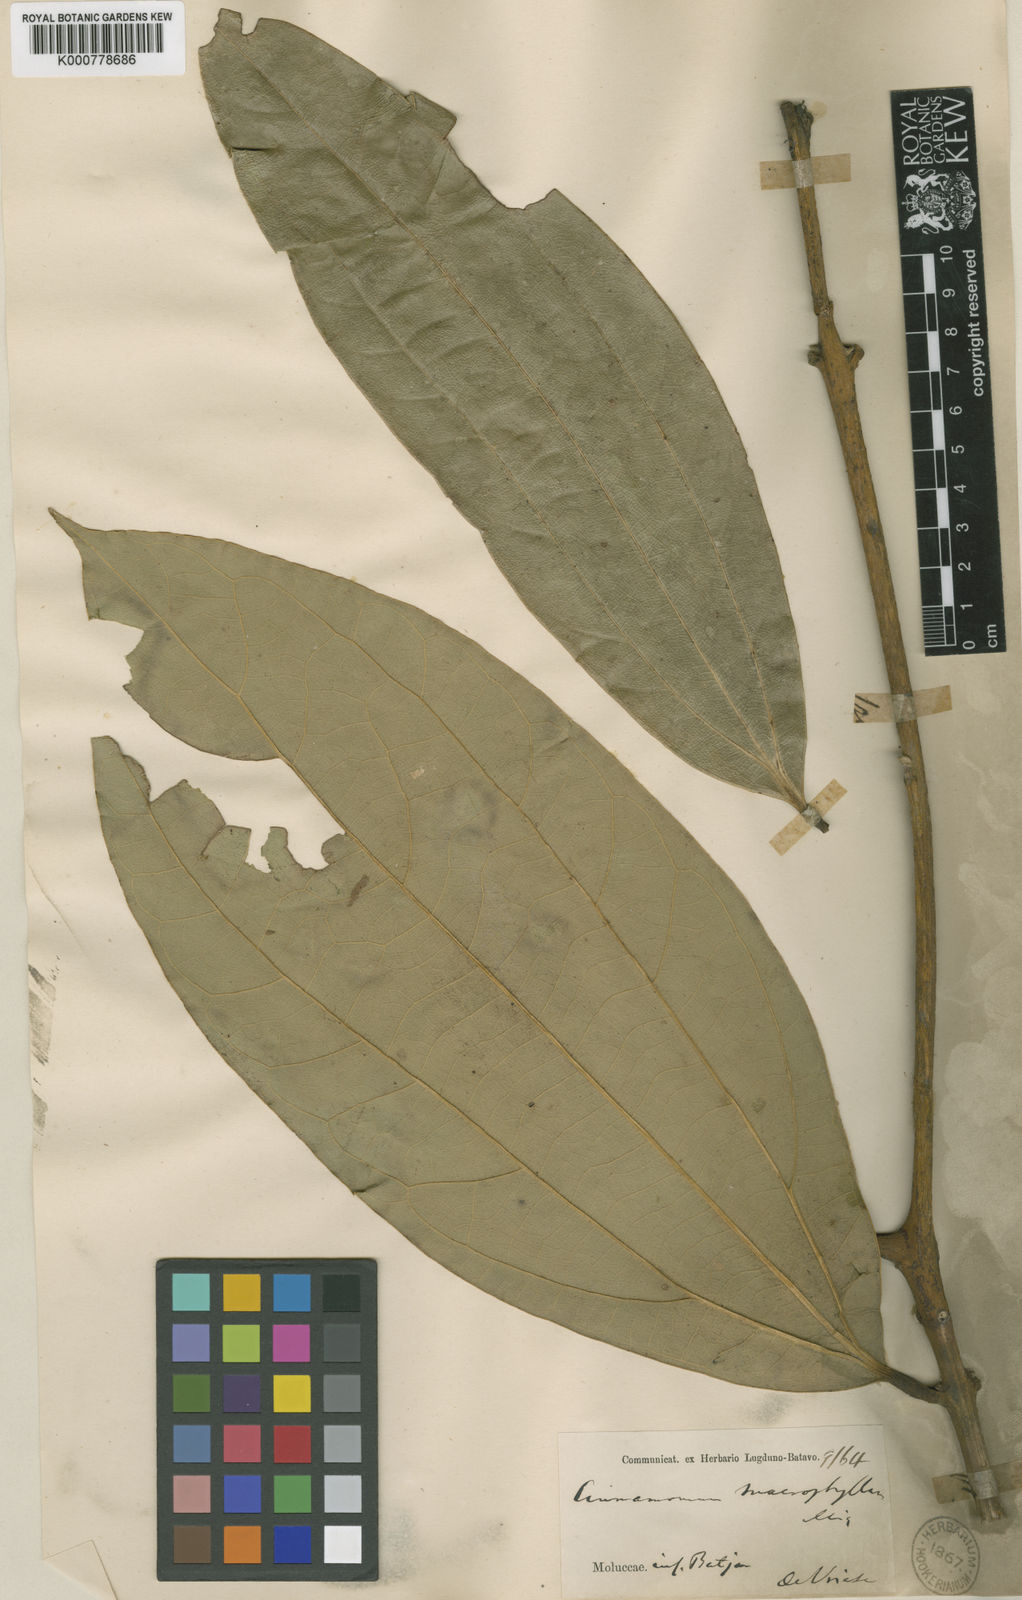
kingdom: Plantae
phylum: Tracheophyta
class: Magnoliopsida
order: Laurales
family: Lauraceae
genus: Cinnamomum
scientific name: Cinnamomum macrophyllum
